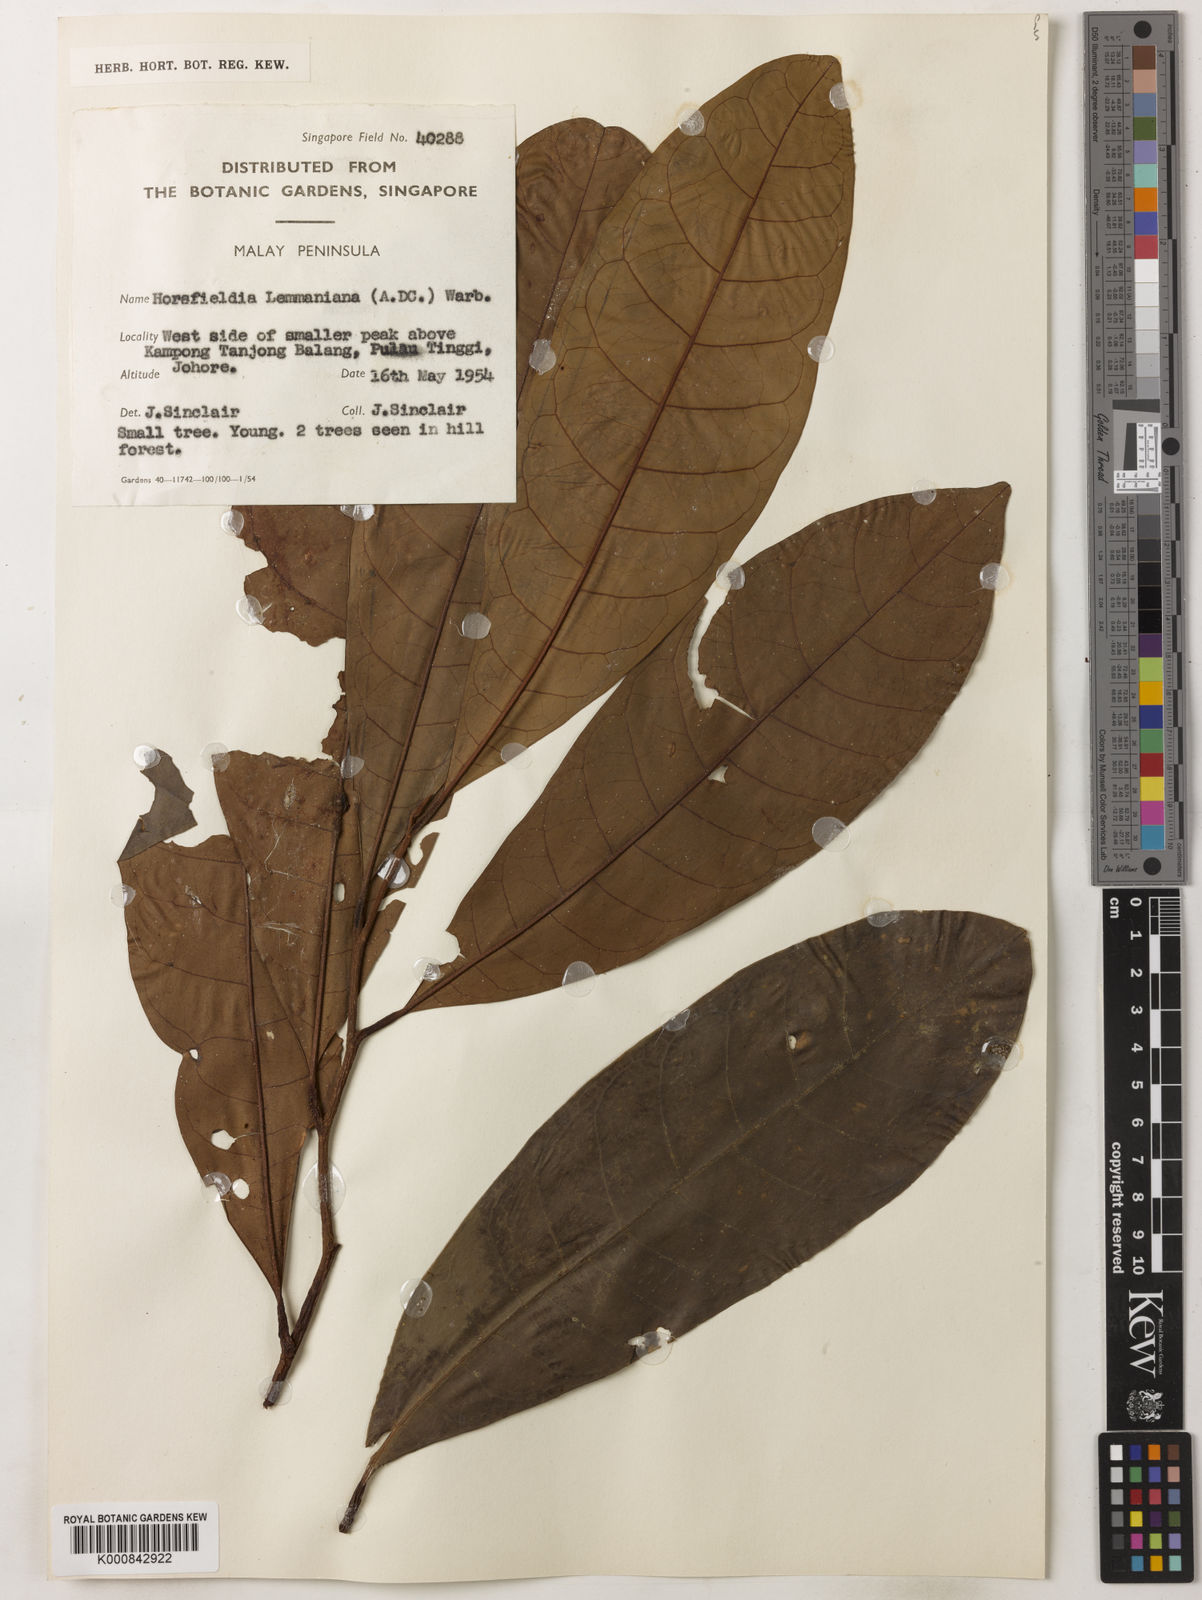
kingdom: Plantae
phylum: Tracheophyta
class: Magnoliopsida
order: Magnoliales
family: Myristicaceae
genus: Horsfieldia
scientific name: Horsfieldia
